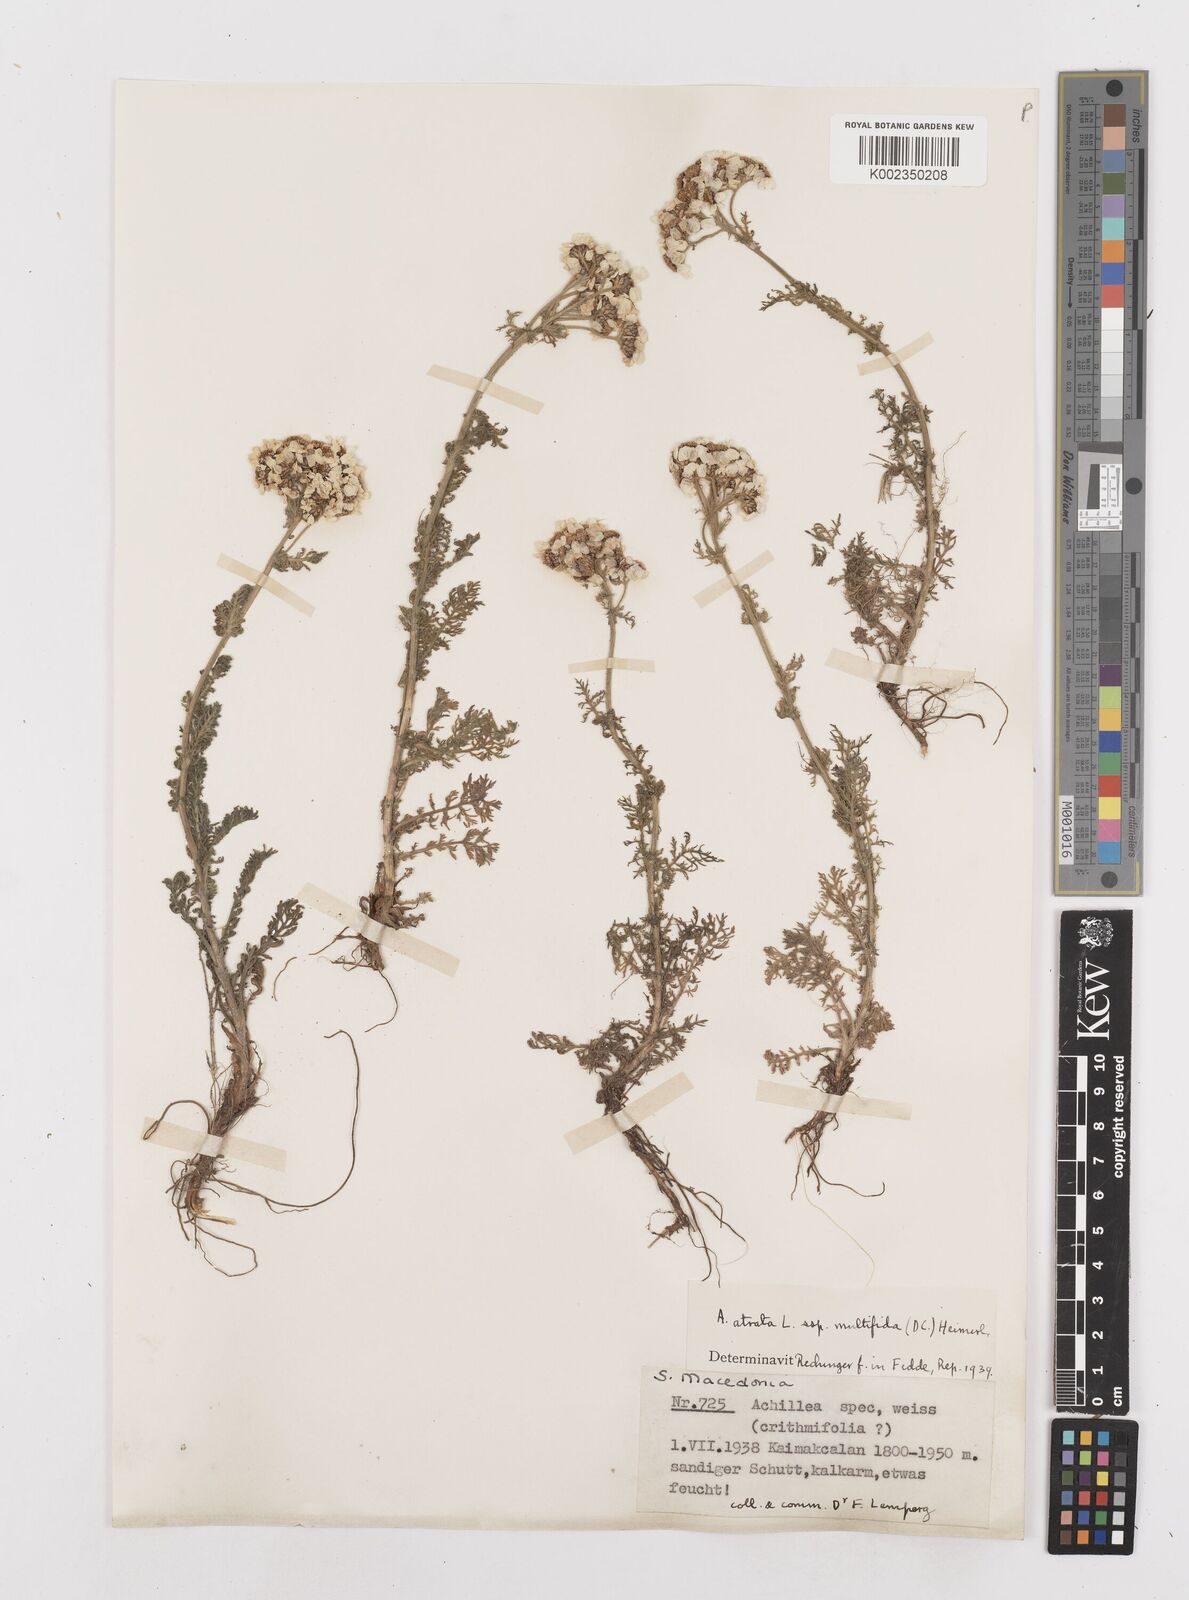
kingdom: Plantae
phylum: Tracheophyta
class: Magnoliopsida
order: Asterales
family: Asteraceae
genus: Achillea
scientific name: Achillea clusiana
